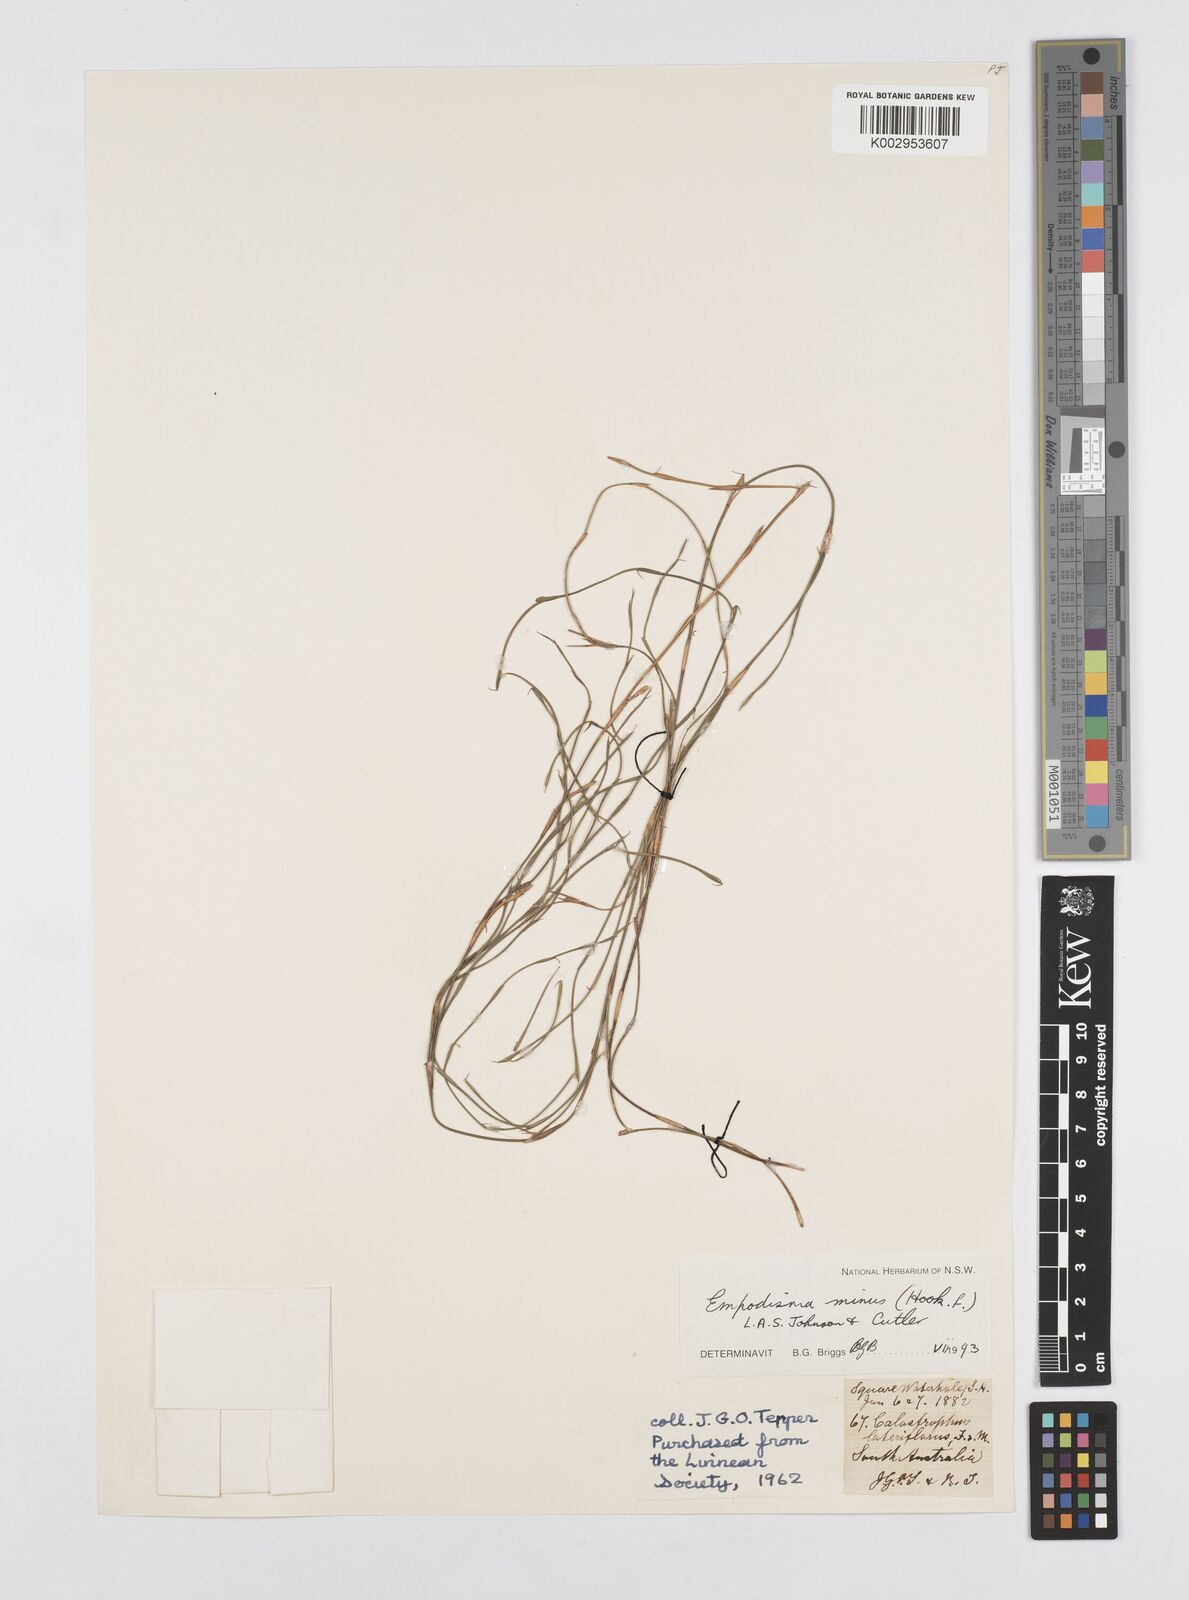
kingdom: Plantae
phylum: Tracheophyta
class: Liliopsida
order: Poales
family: Restionaceae
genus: Empodisma
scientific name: Empodisma minus
